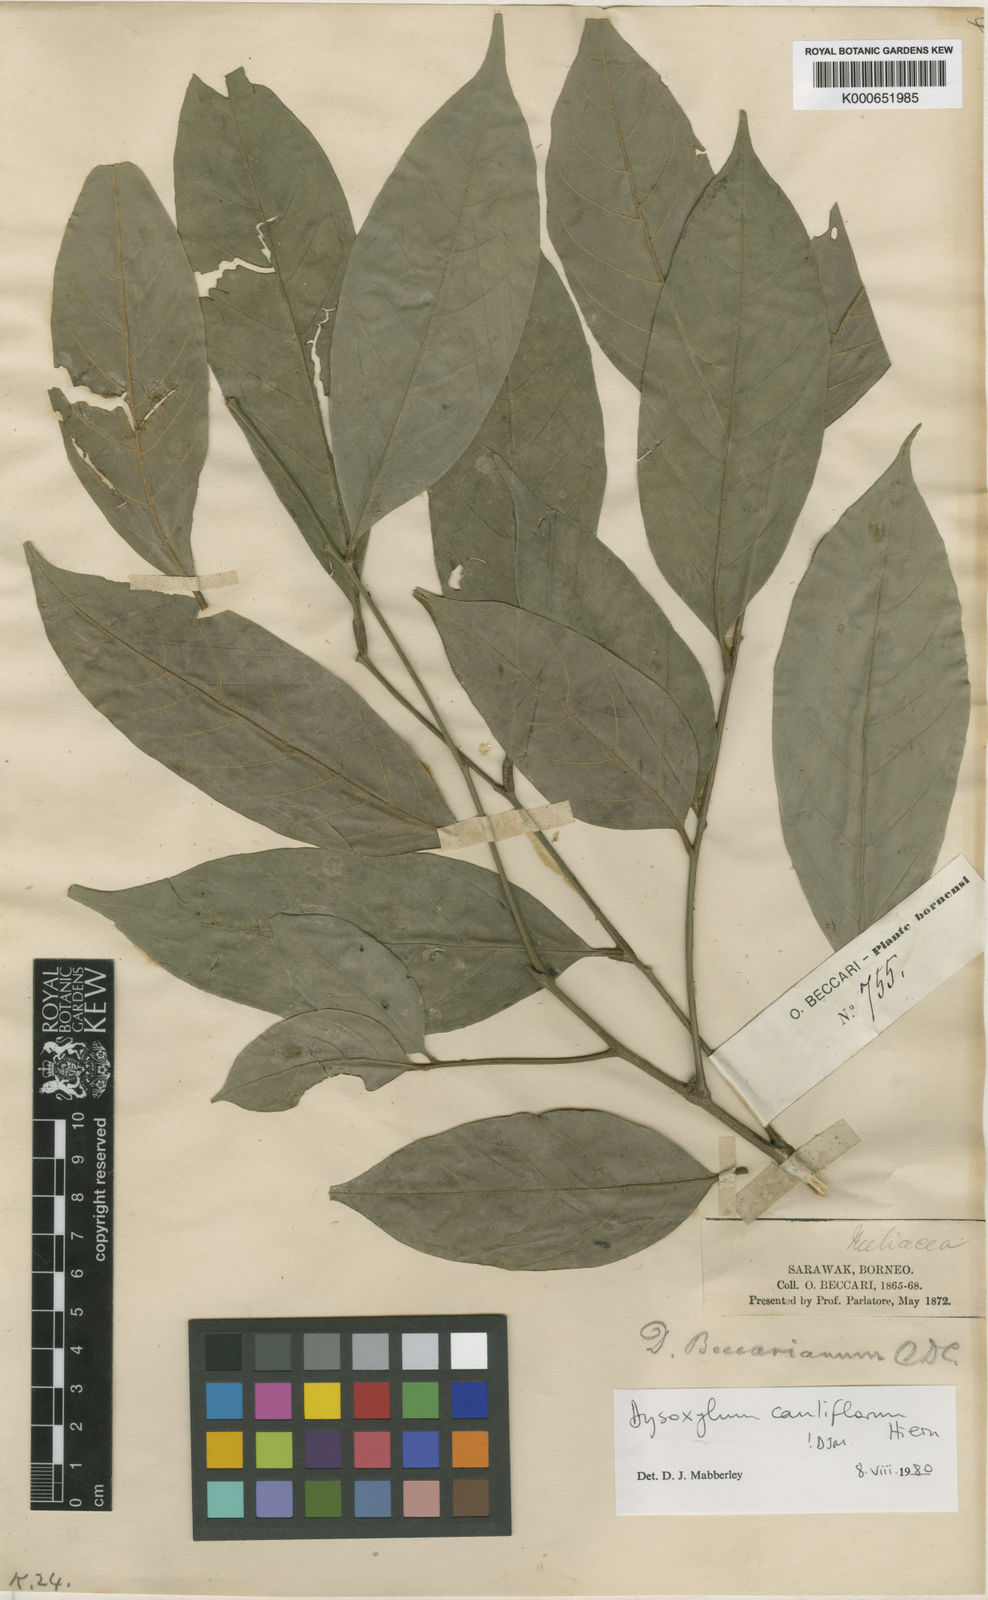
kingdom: Plantae
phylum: Tracheophyta
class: Magnoliopsida
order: Sapindales
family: Meliaceae
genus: Epicharis
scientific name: Epicharis cuneata
